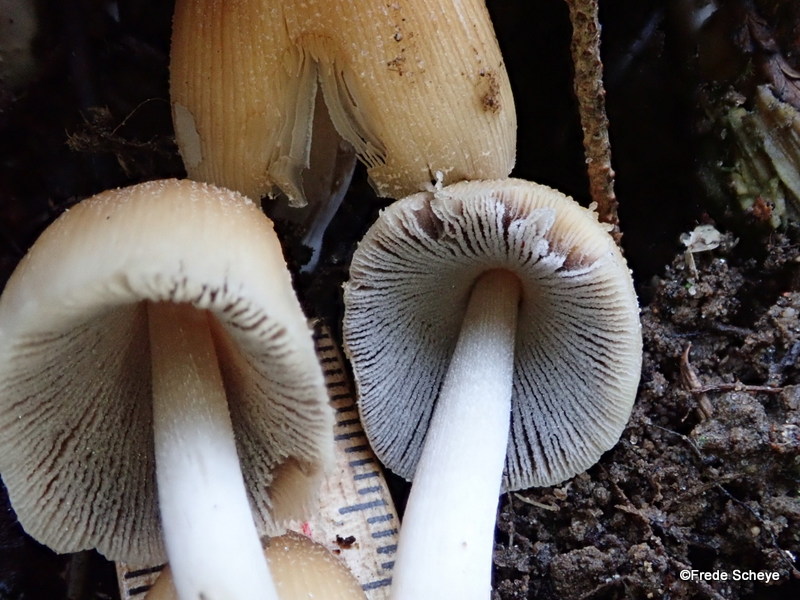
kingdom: Fungi
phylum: Basidiomycota
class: Agaricomycetes
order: Agaricales
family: Psathyrellaceae
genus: Coprinellus
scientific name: Coprinellus micaceus
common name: glimmer-blækhat
